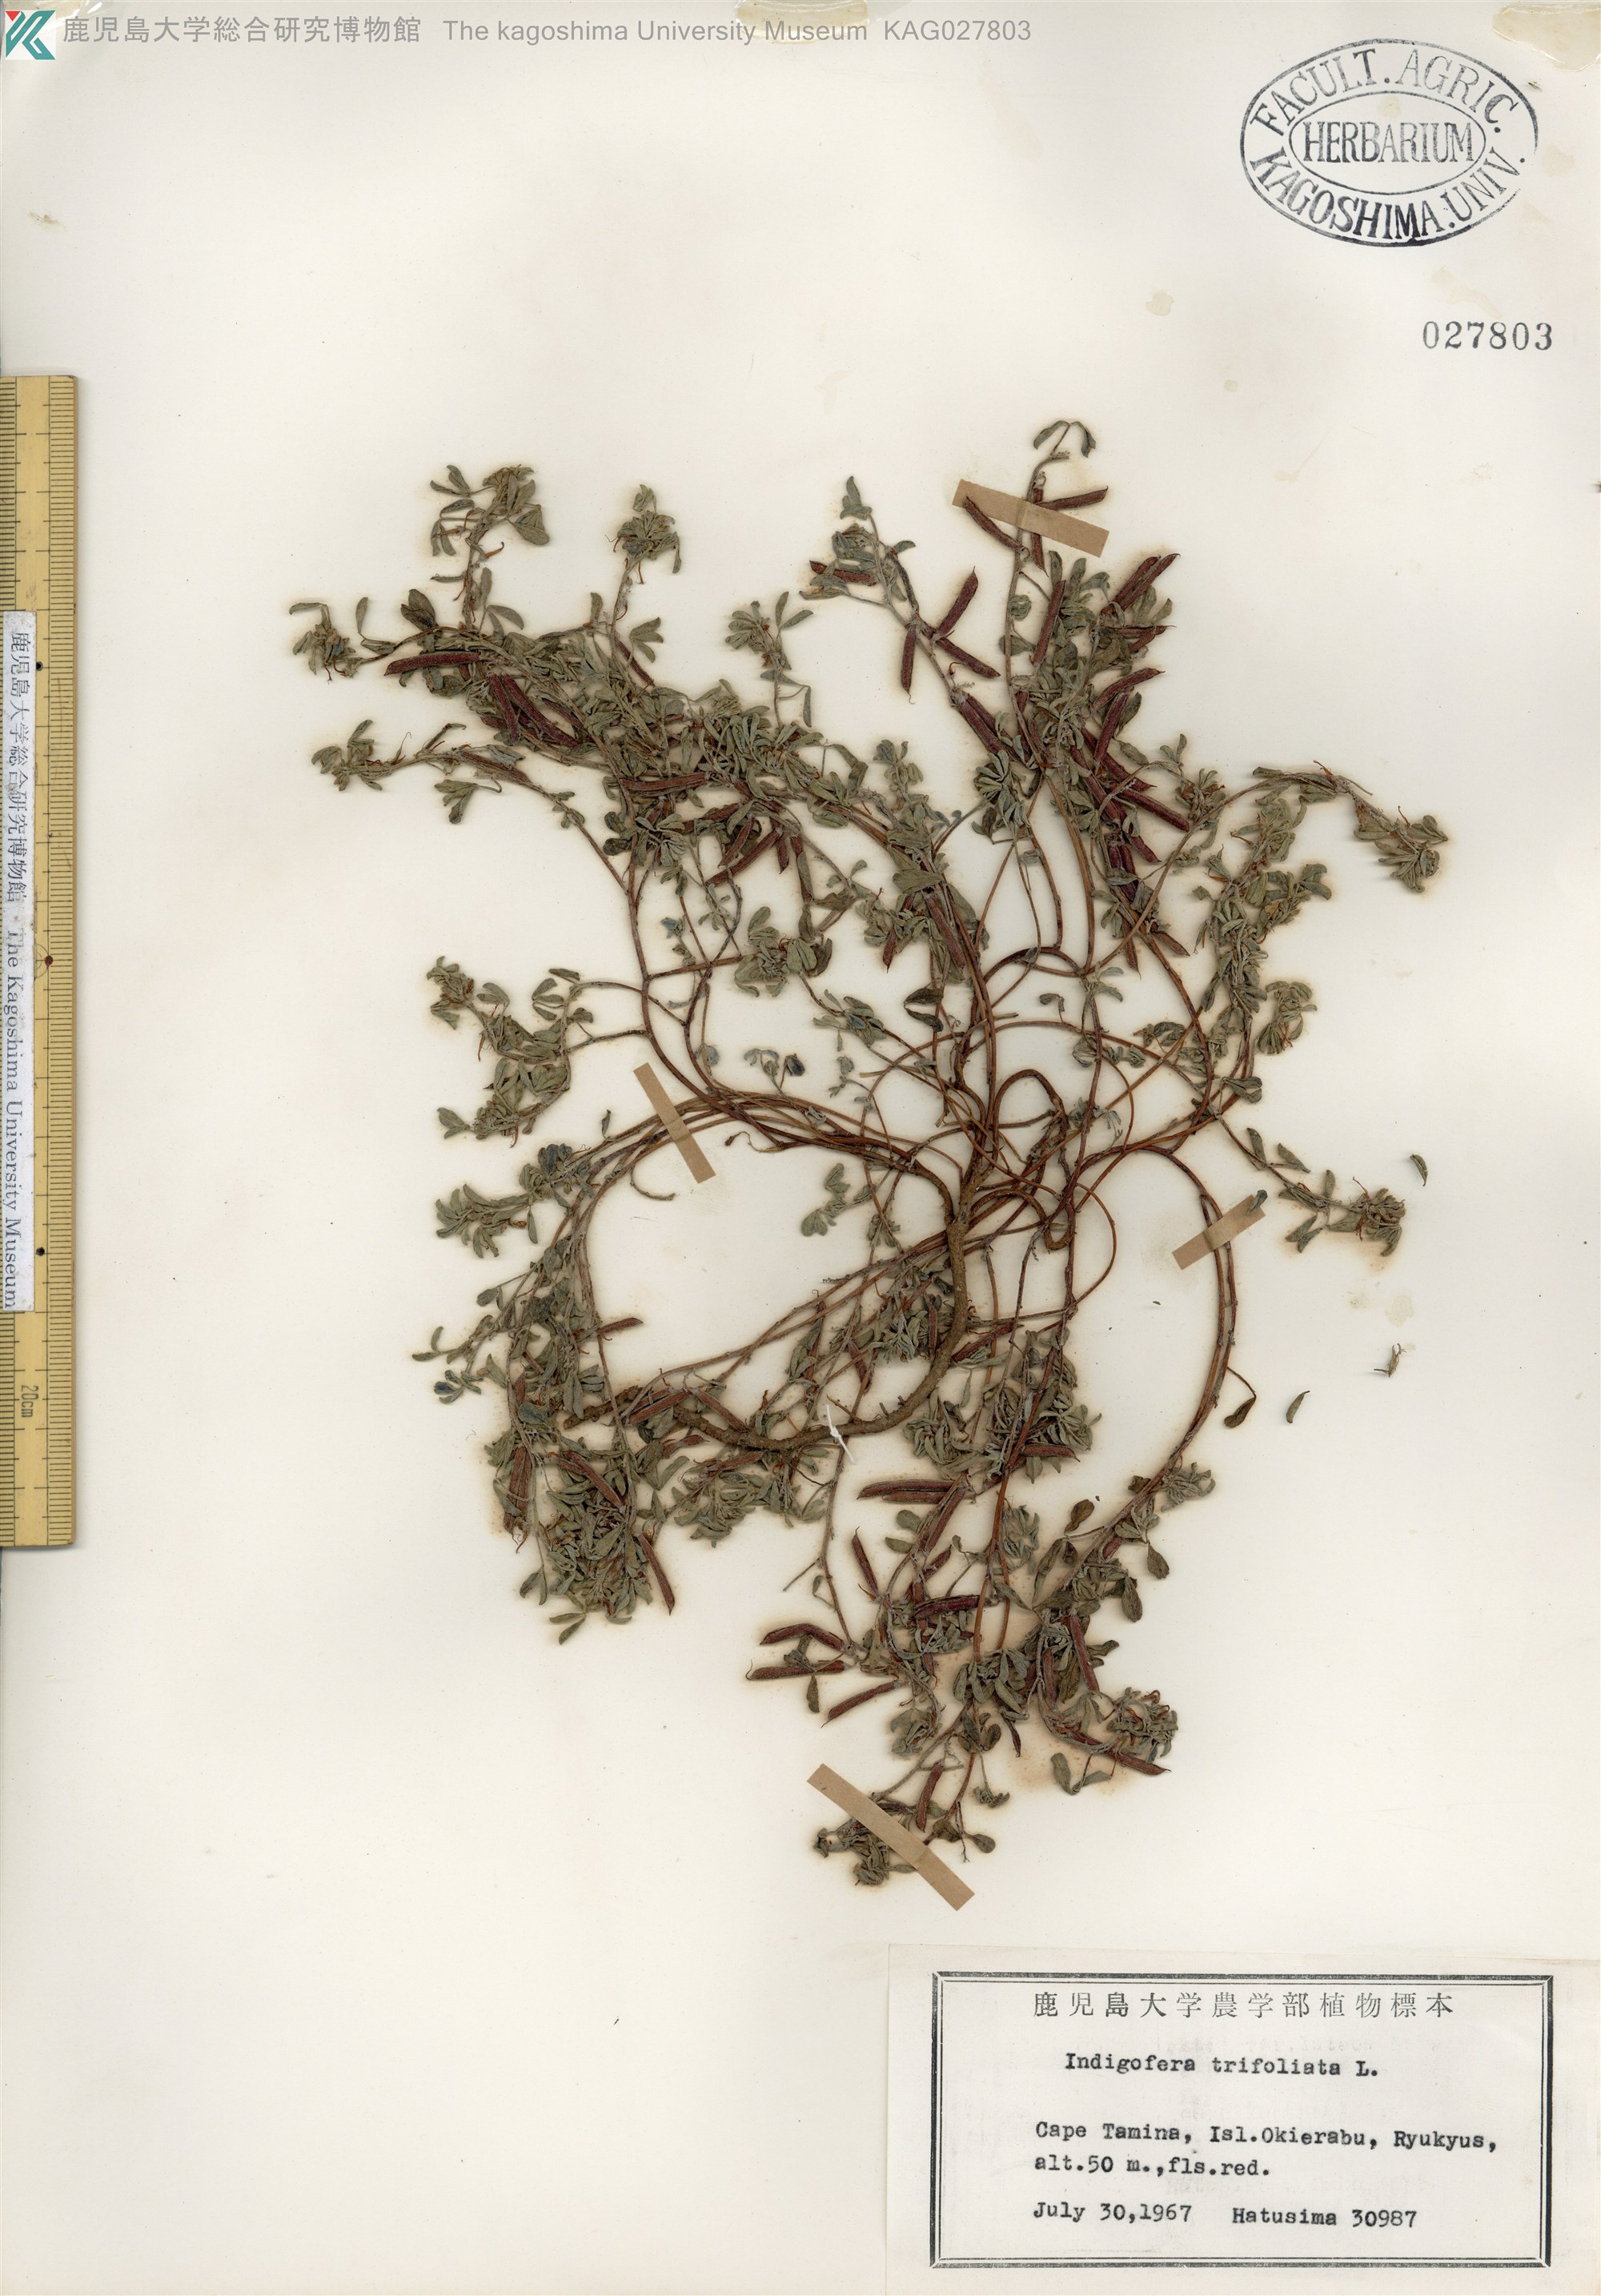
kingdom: Plantae
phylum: Tracheophyta
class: Magnoliopsida
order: Fabales
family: Fabaceae
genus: Indigofera
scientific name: Indigofera trifoliata
